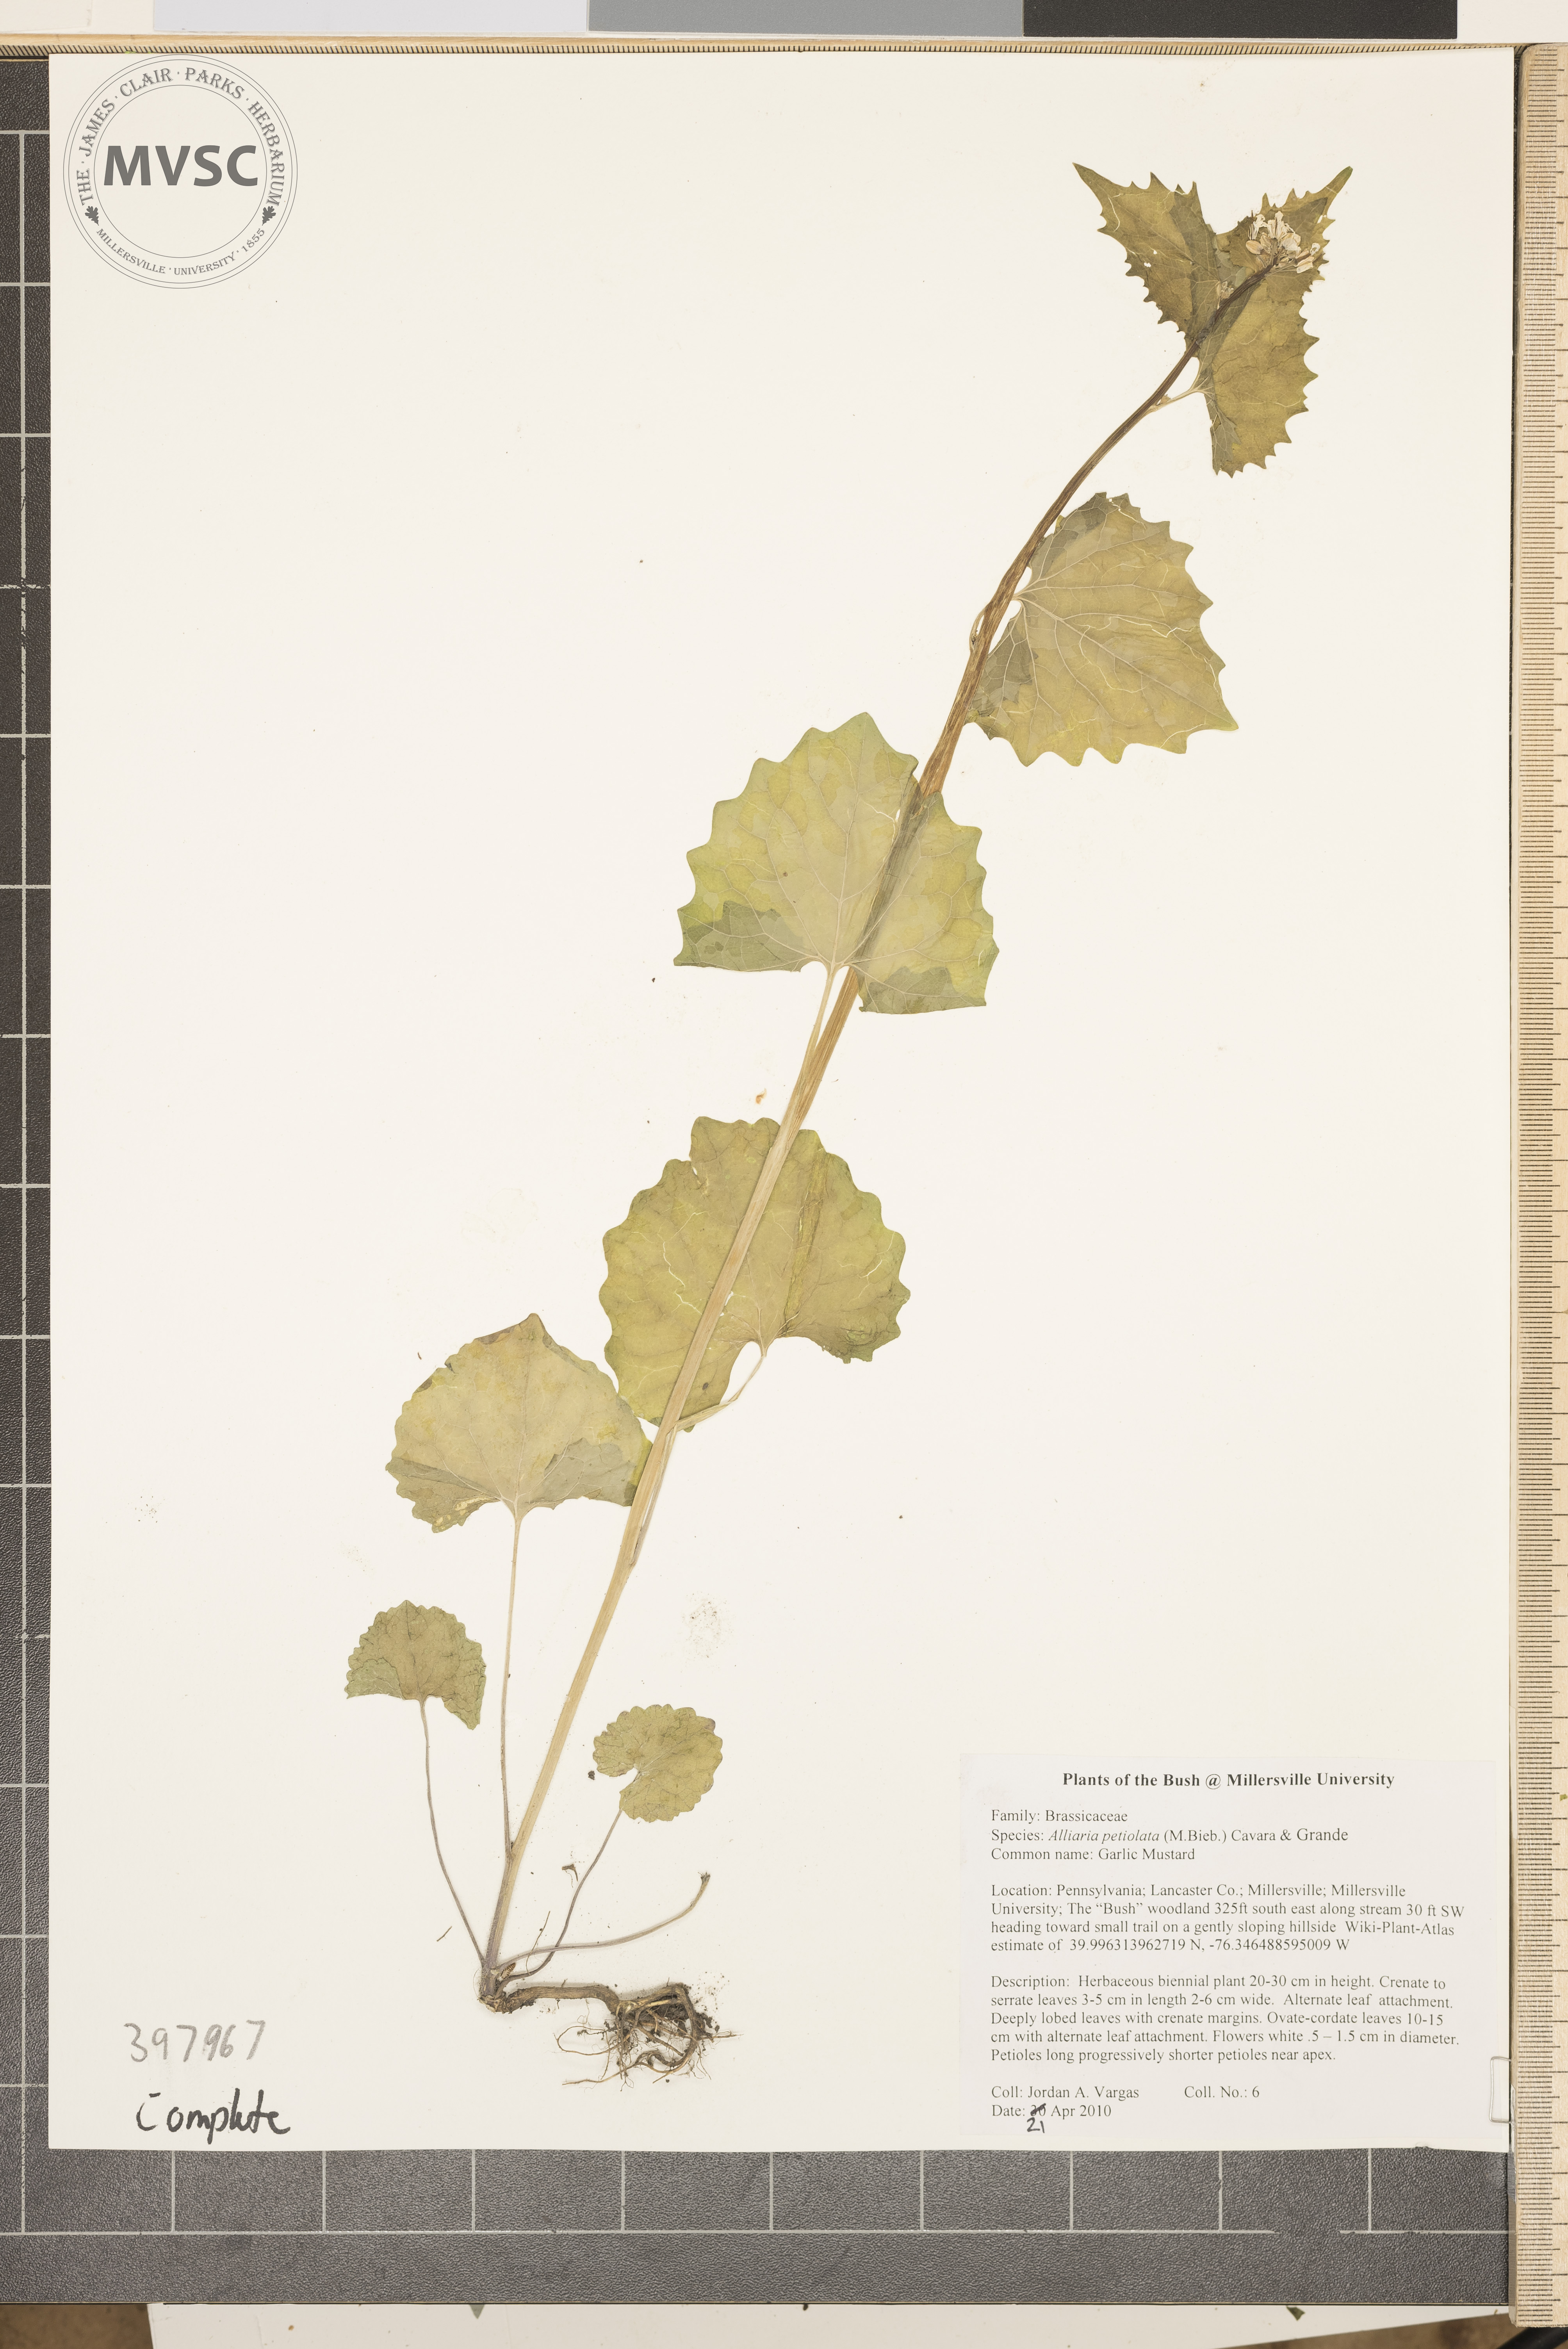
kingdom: Plantae
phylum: Tracheophyta
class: Magnoliopsida
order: Brassicales
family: Brassicaceae
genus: Alliaria
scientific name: Alliaria petiolata
